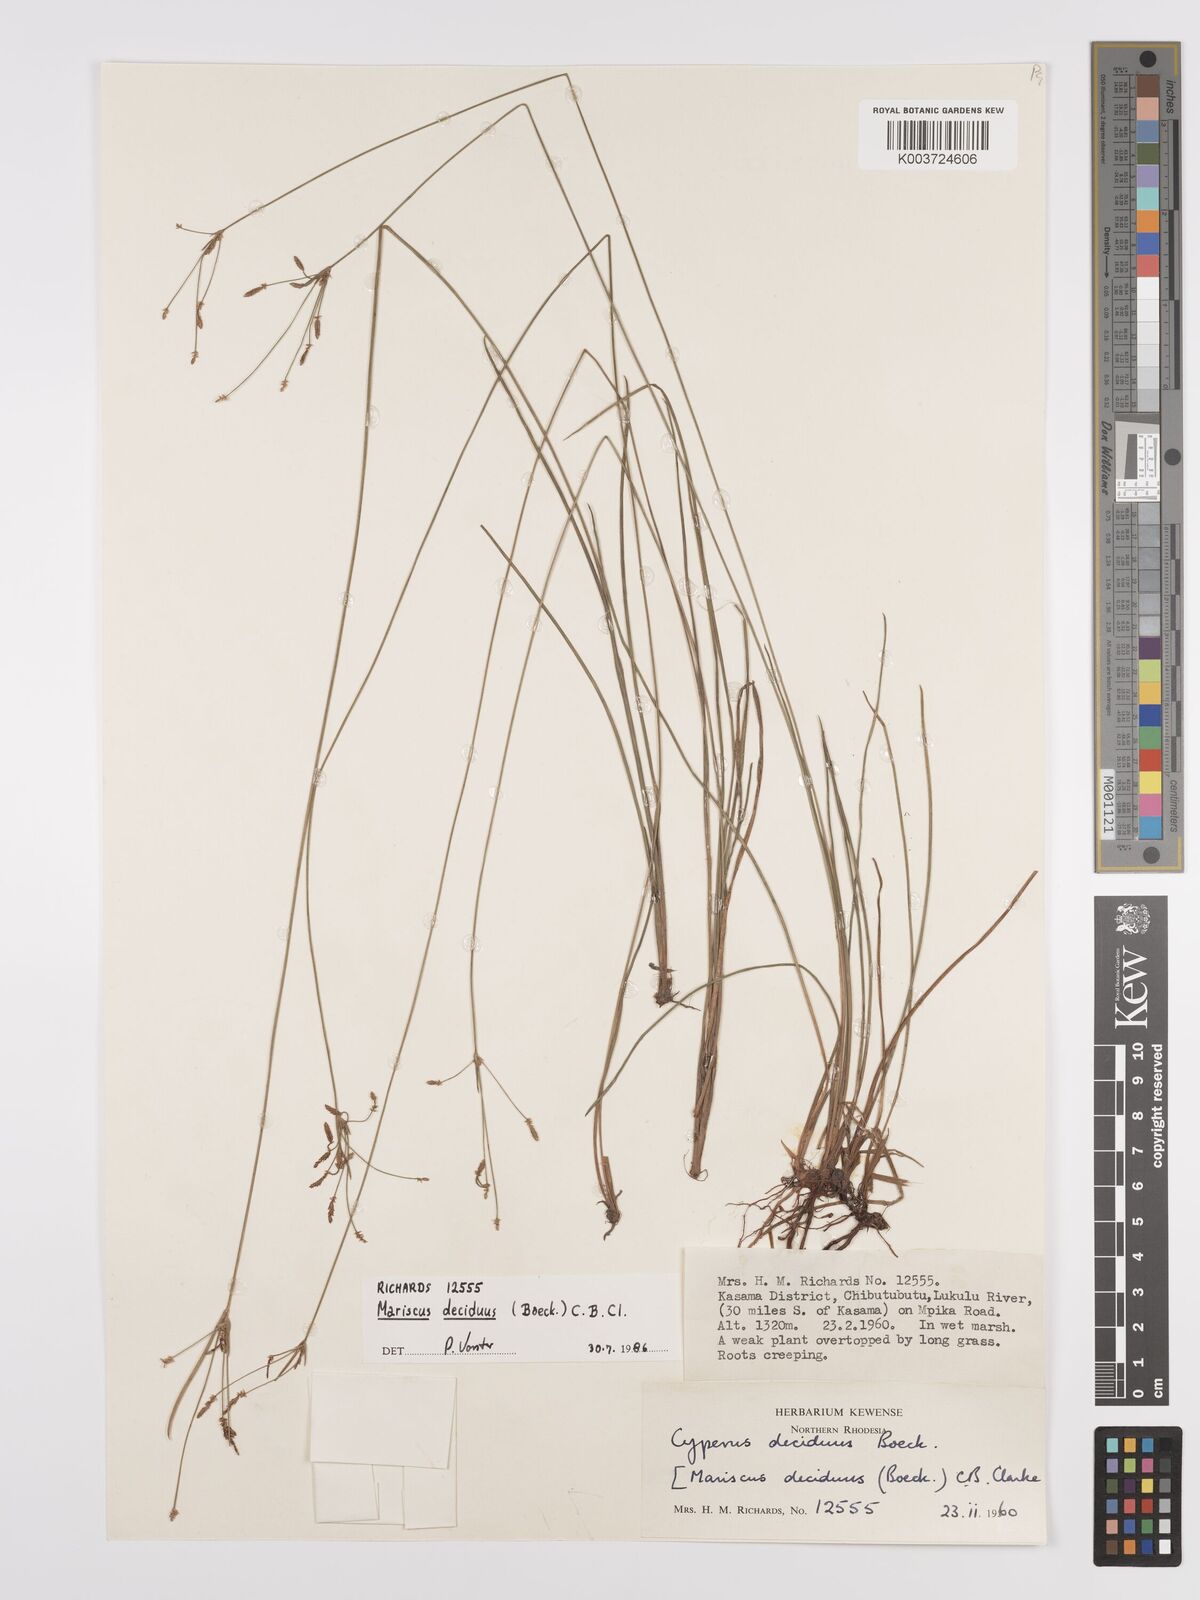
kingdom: Plantae
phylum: Tracheophyta
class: Liliopsida
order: Poales
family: Cyperaceae
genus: Cyperus
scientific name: Cyperus deciduus
